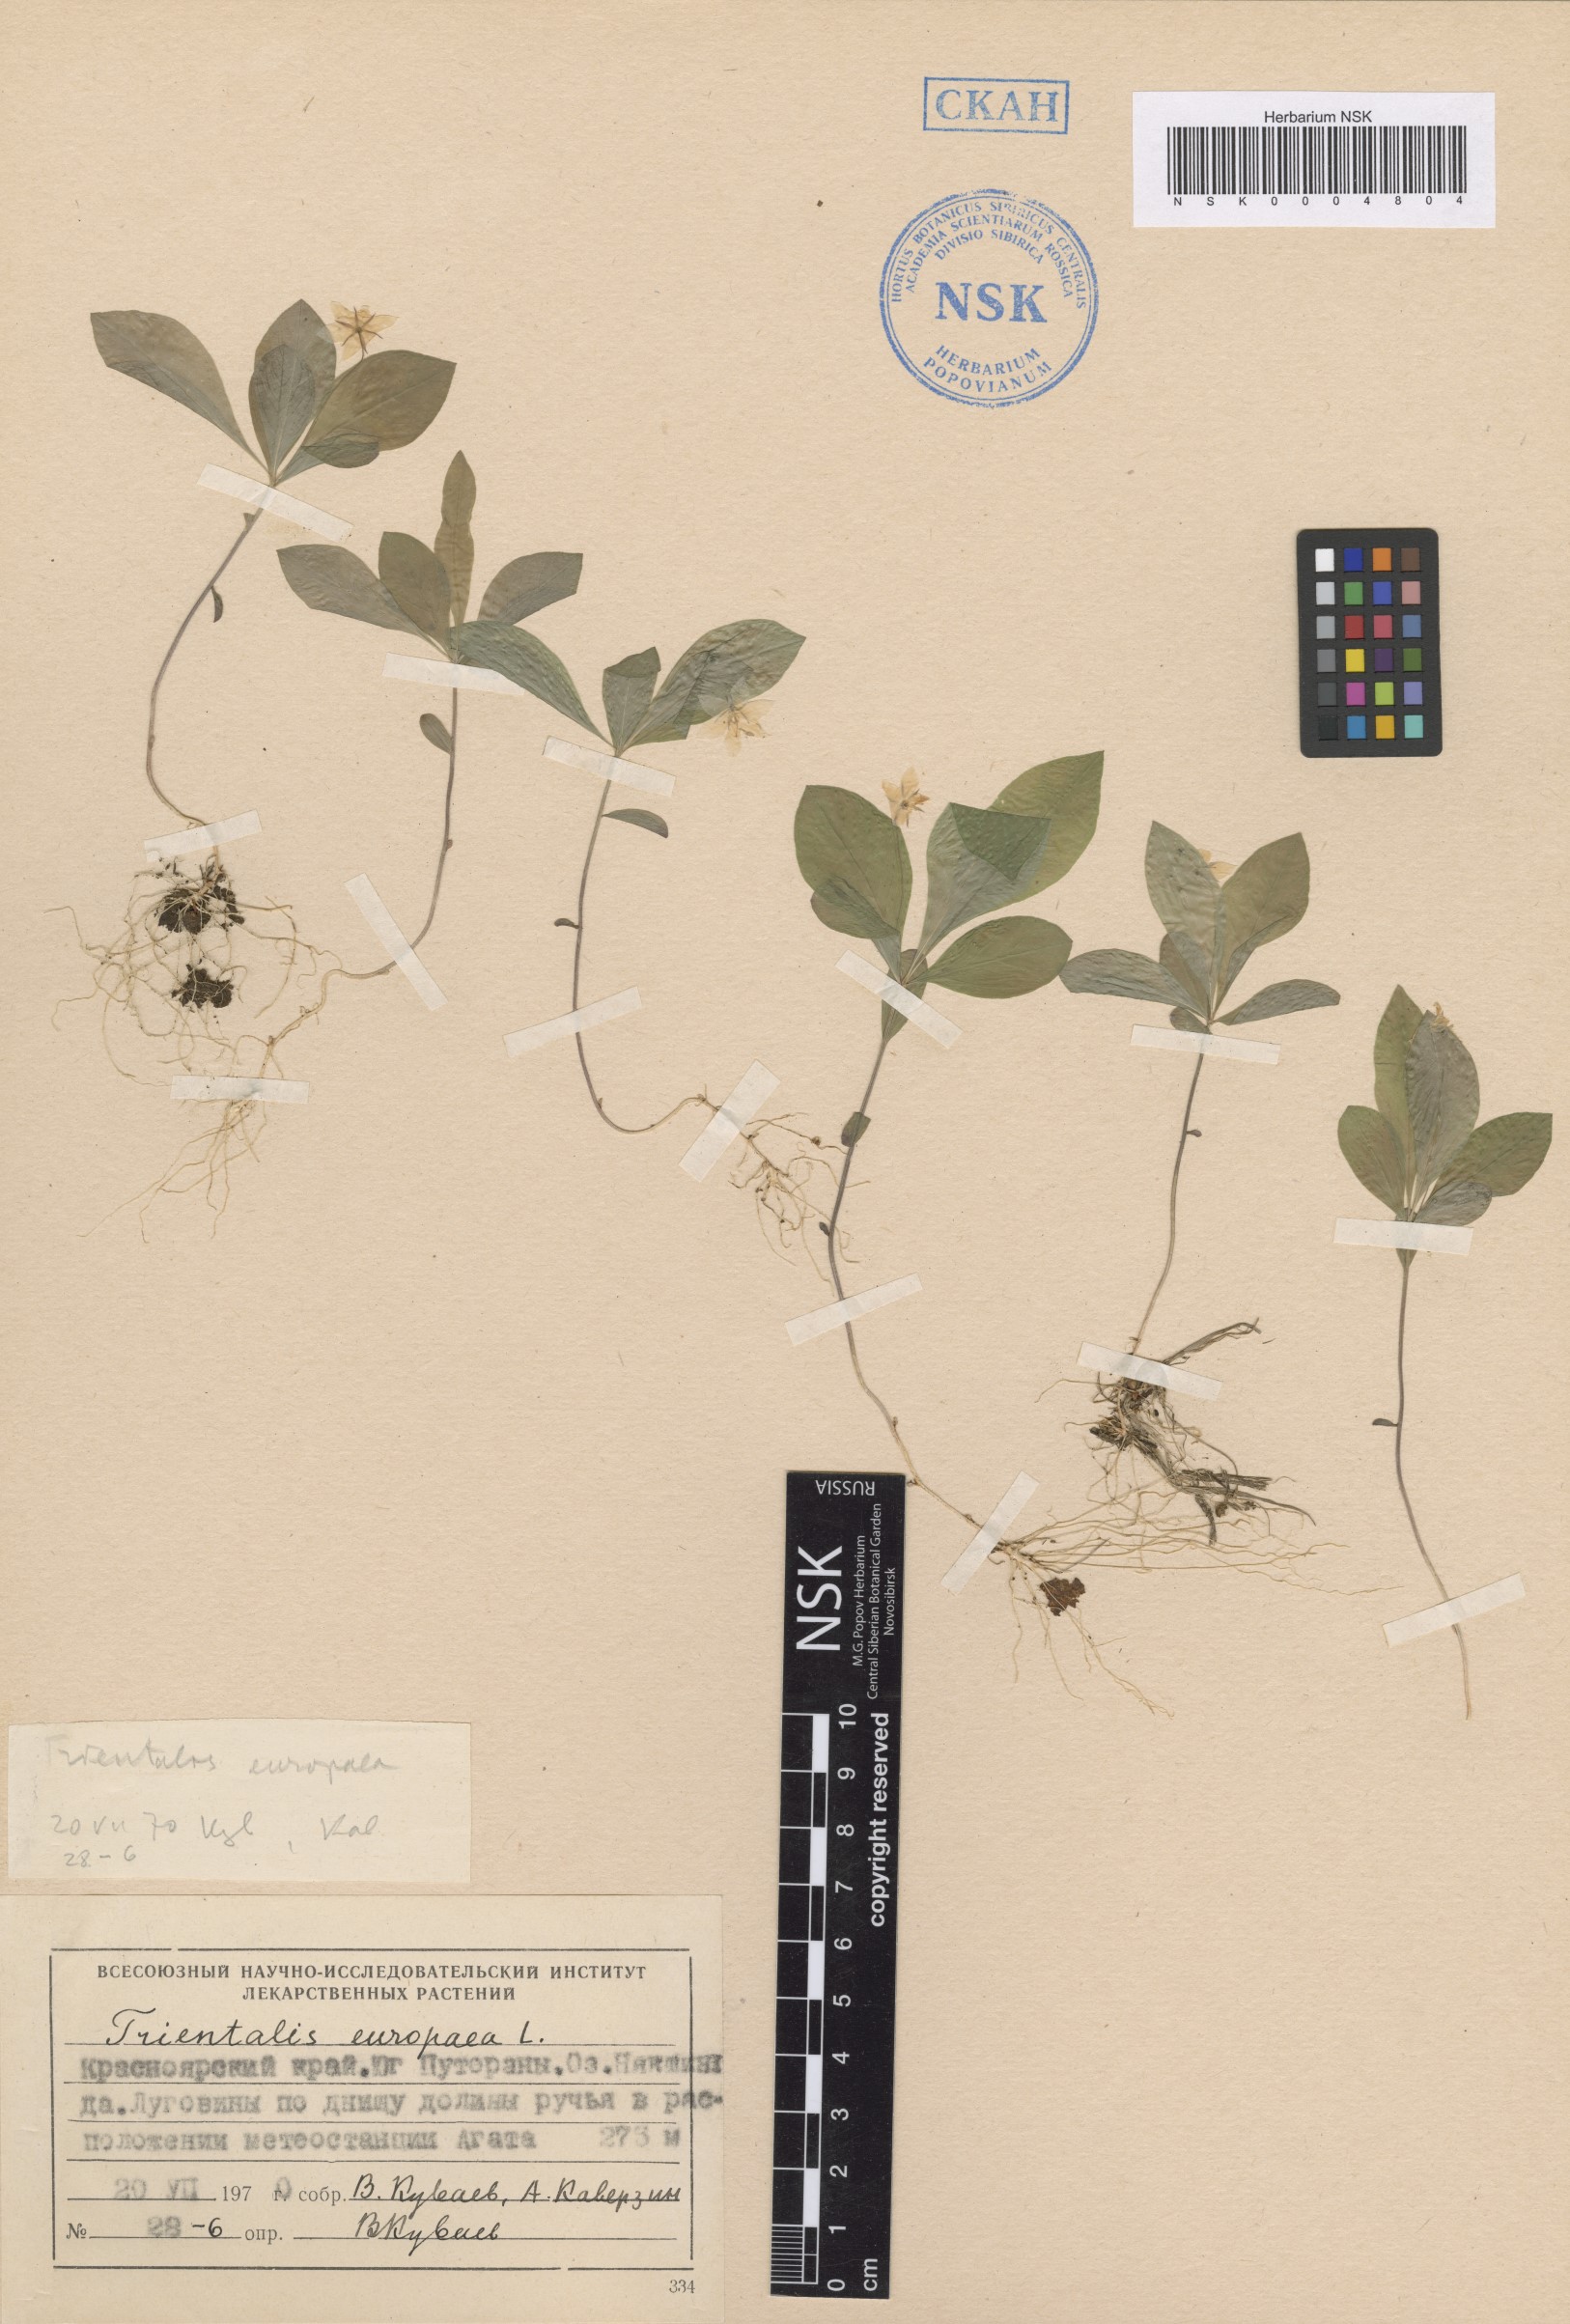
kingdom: Plantae
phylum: Tracheophyta
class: Magnoliopsida
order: Ericales
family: Primulaceae
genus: Lysimachia
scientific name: Lysimachia europaea
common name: Arctic starflower
